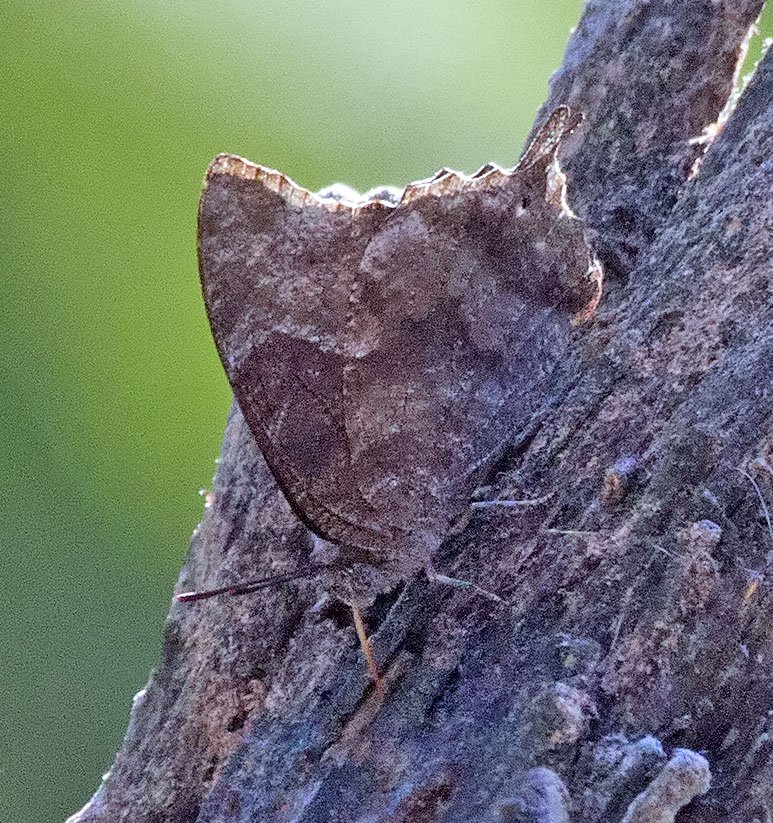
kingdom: Animalia
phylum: Arthropoda
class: Insecta
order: Lepidoptera
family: Nymphalidae
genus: Anaea
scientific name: Anaea pithyusa
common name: Pale-spotted Leafwing
